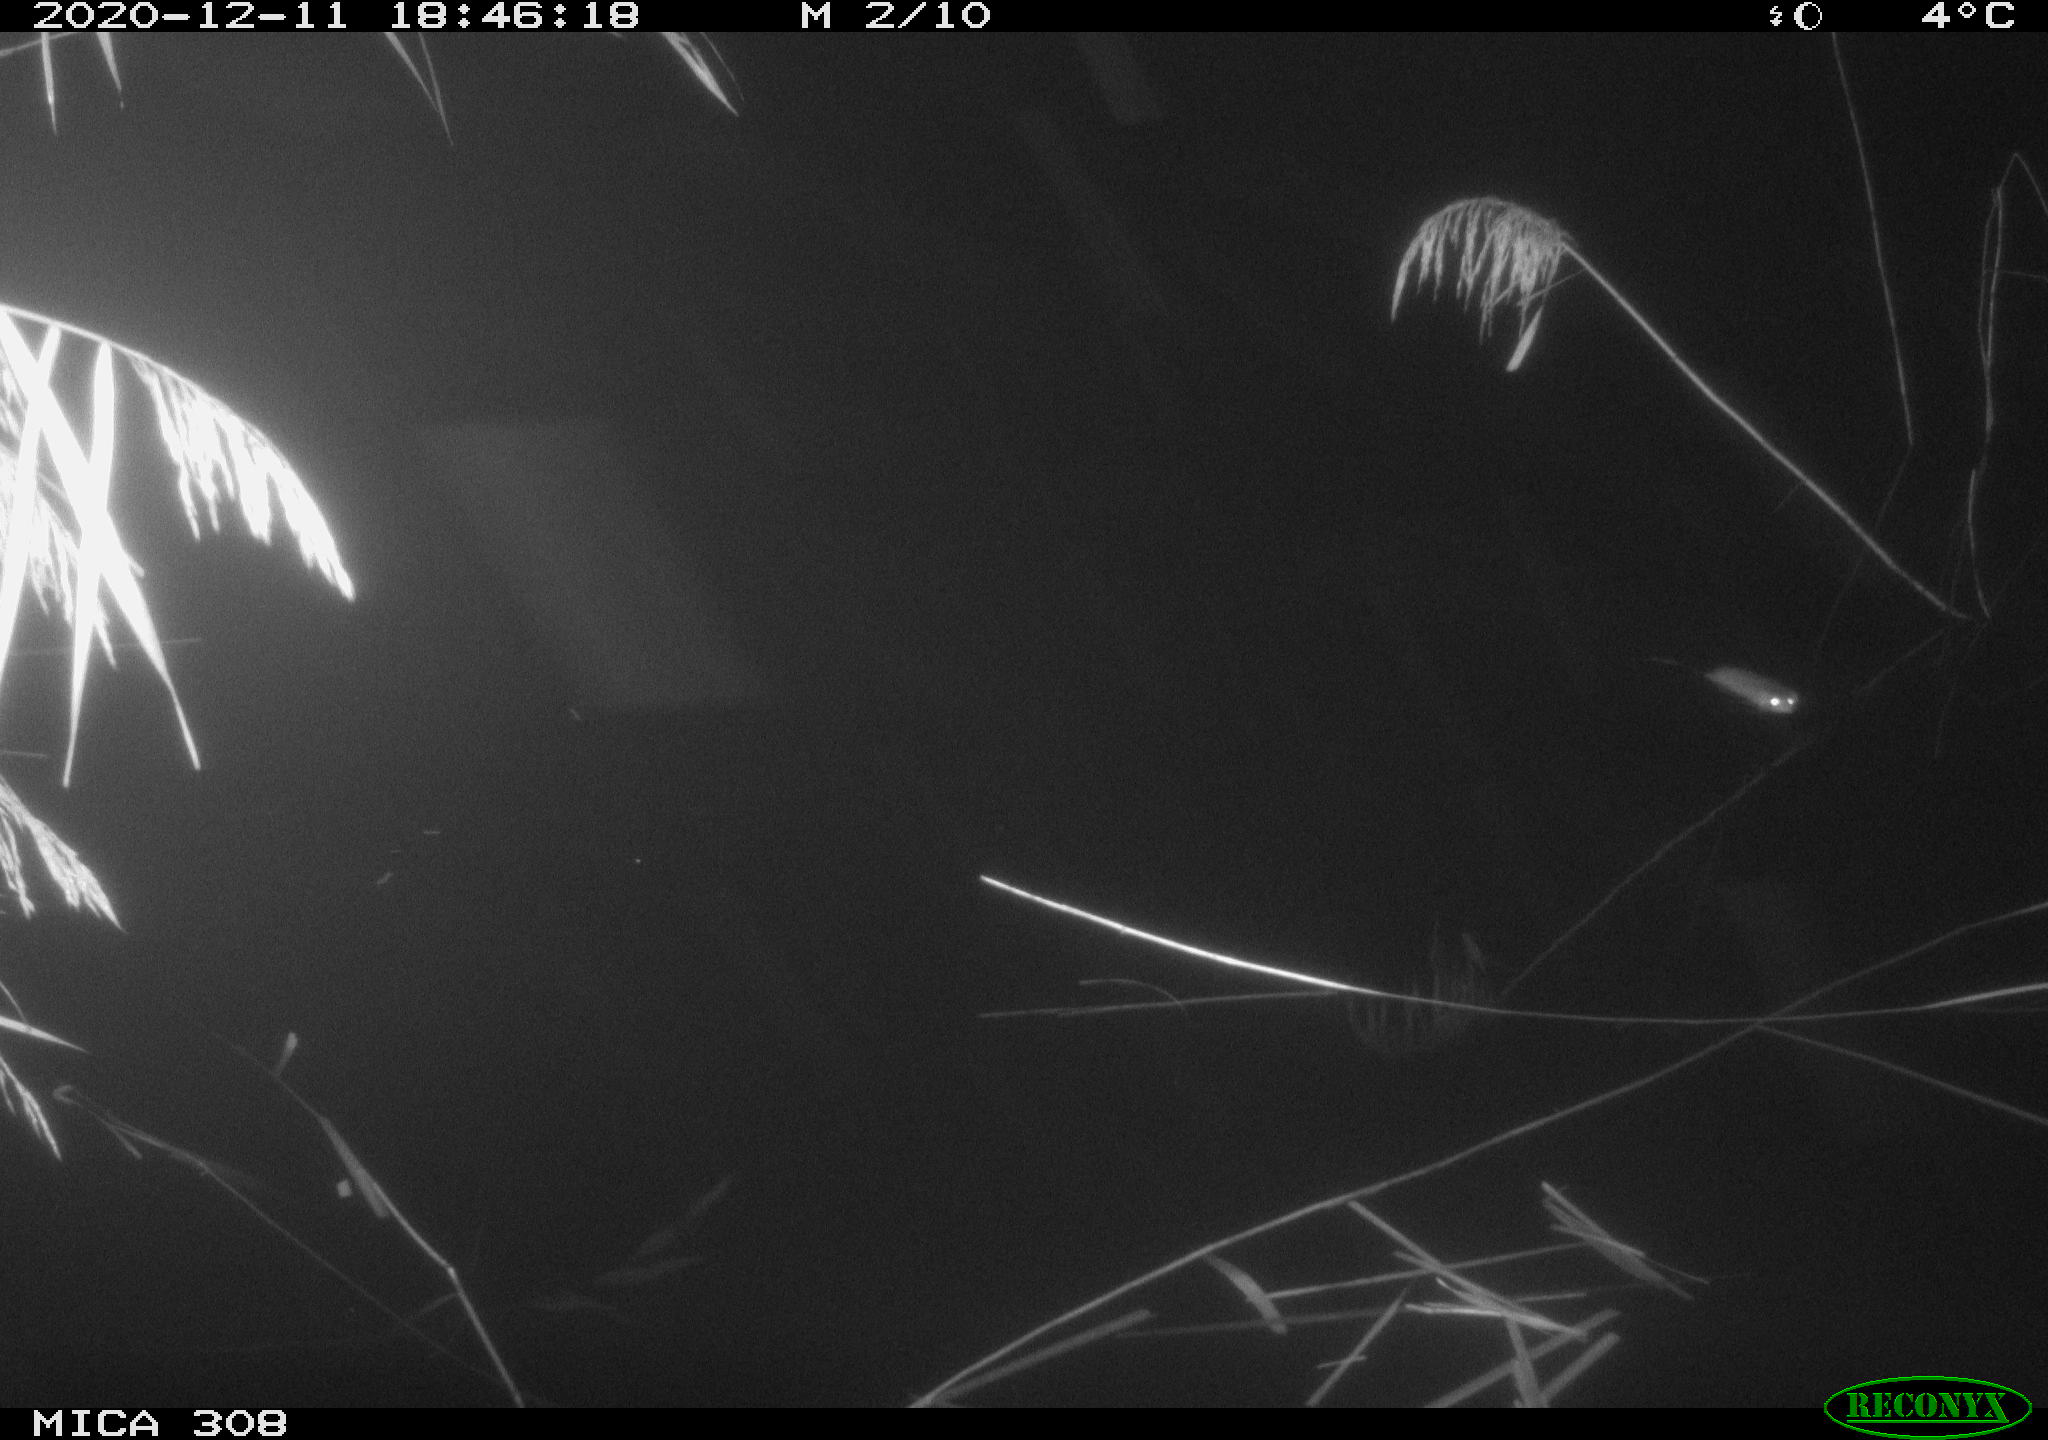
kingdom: Animalia
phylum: Chordata
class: Mammalia
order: Rodentia
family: Muridae
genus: Rattus
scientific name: Rattus norvegicus
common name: Brown rat
